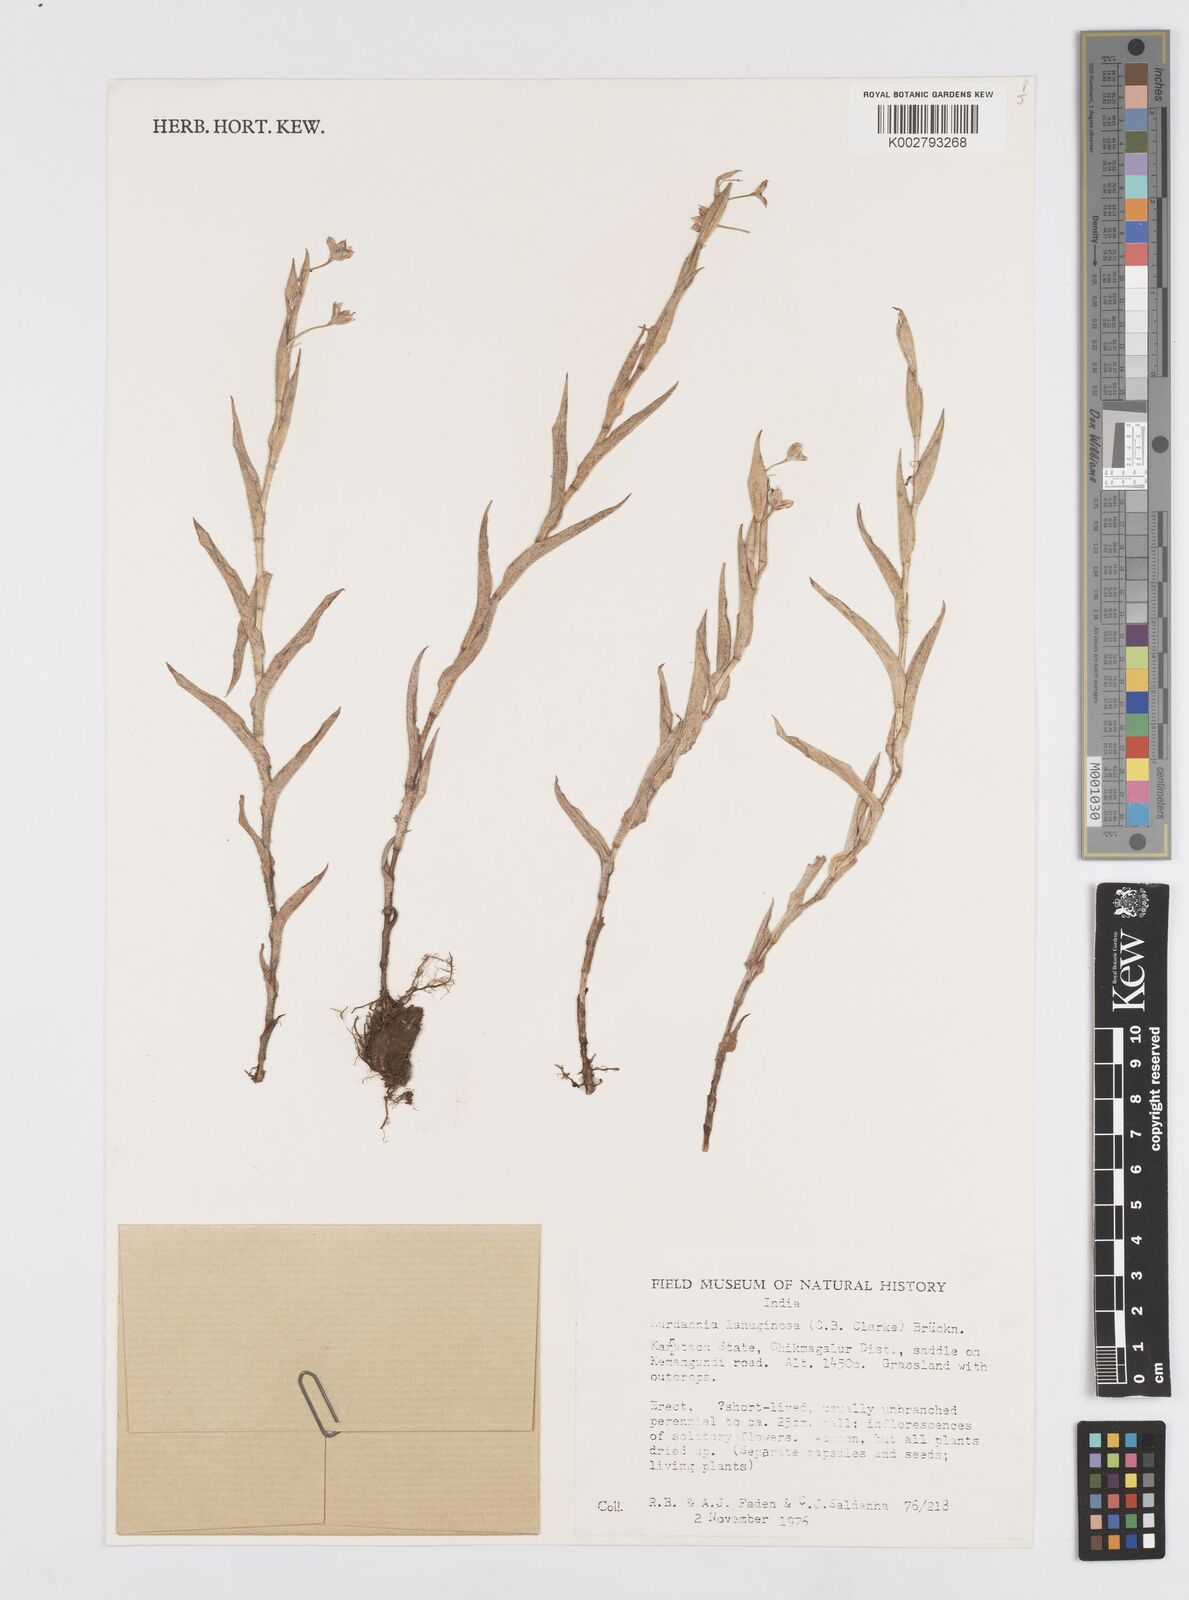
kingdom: Plantae
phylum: Tracheophyta
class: Liliopsida
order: Commelinales
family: Commelinaceae
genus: Murdannia
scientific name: Murdannia lanuginosa
